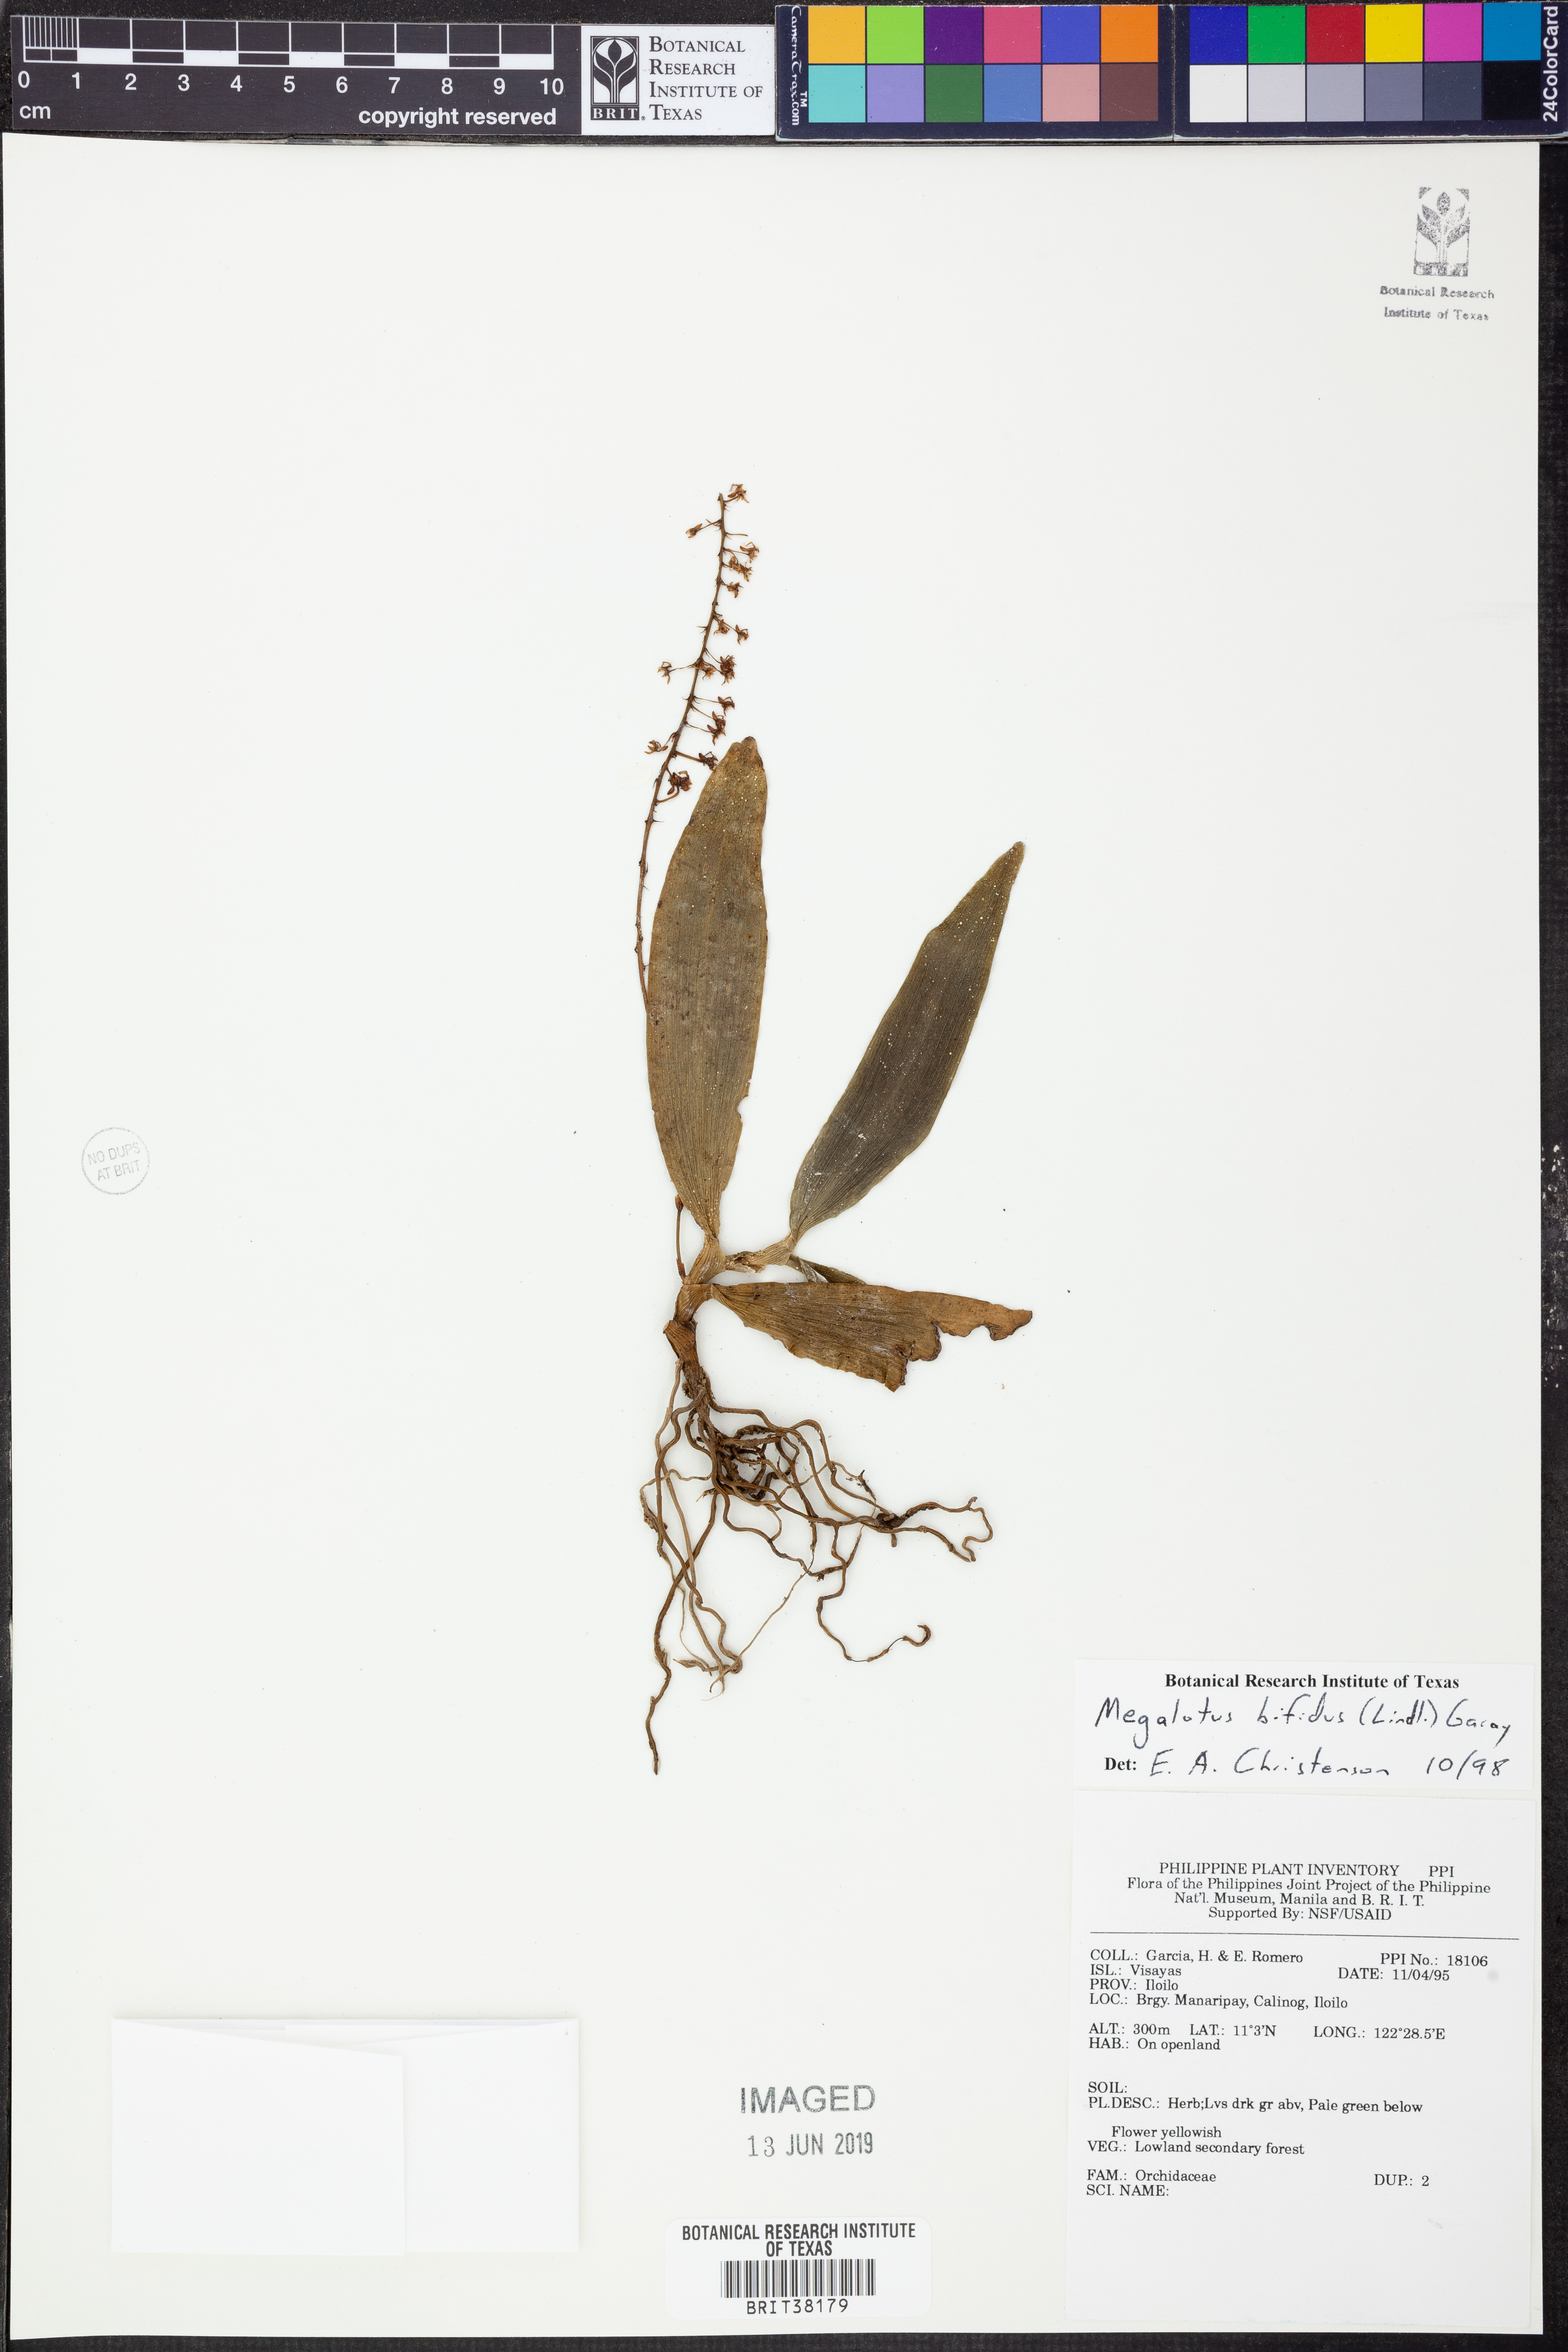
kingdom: Plantae
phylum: Tracheophyta
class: Liliopsida
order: Asparagales
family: Orchidaceae
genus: Robiquetia
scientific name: Robiquetia bifida
